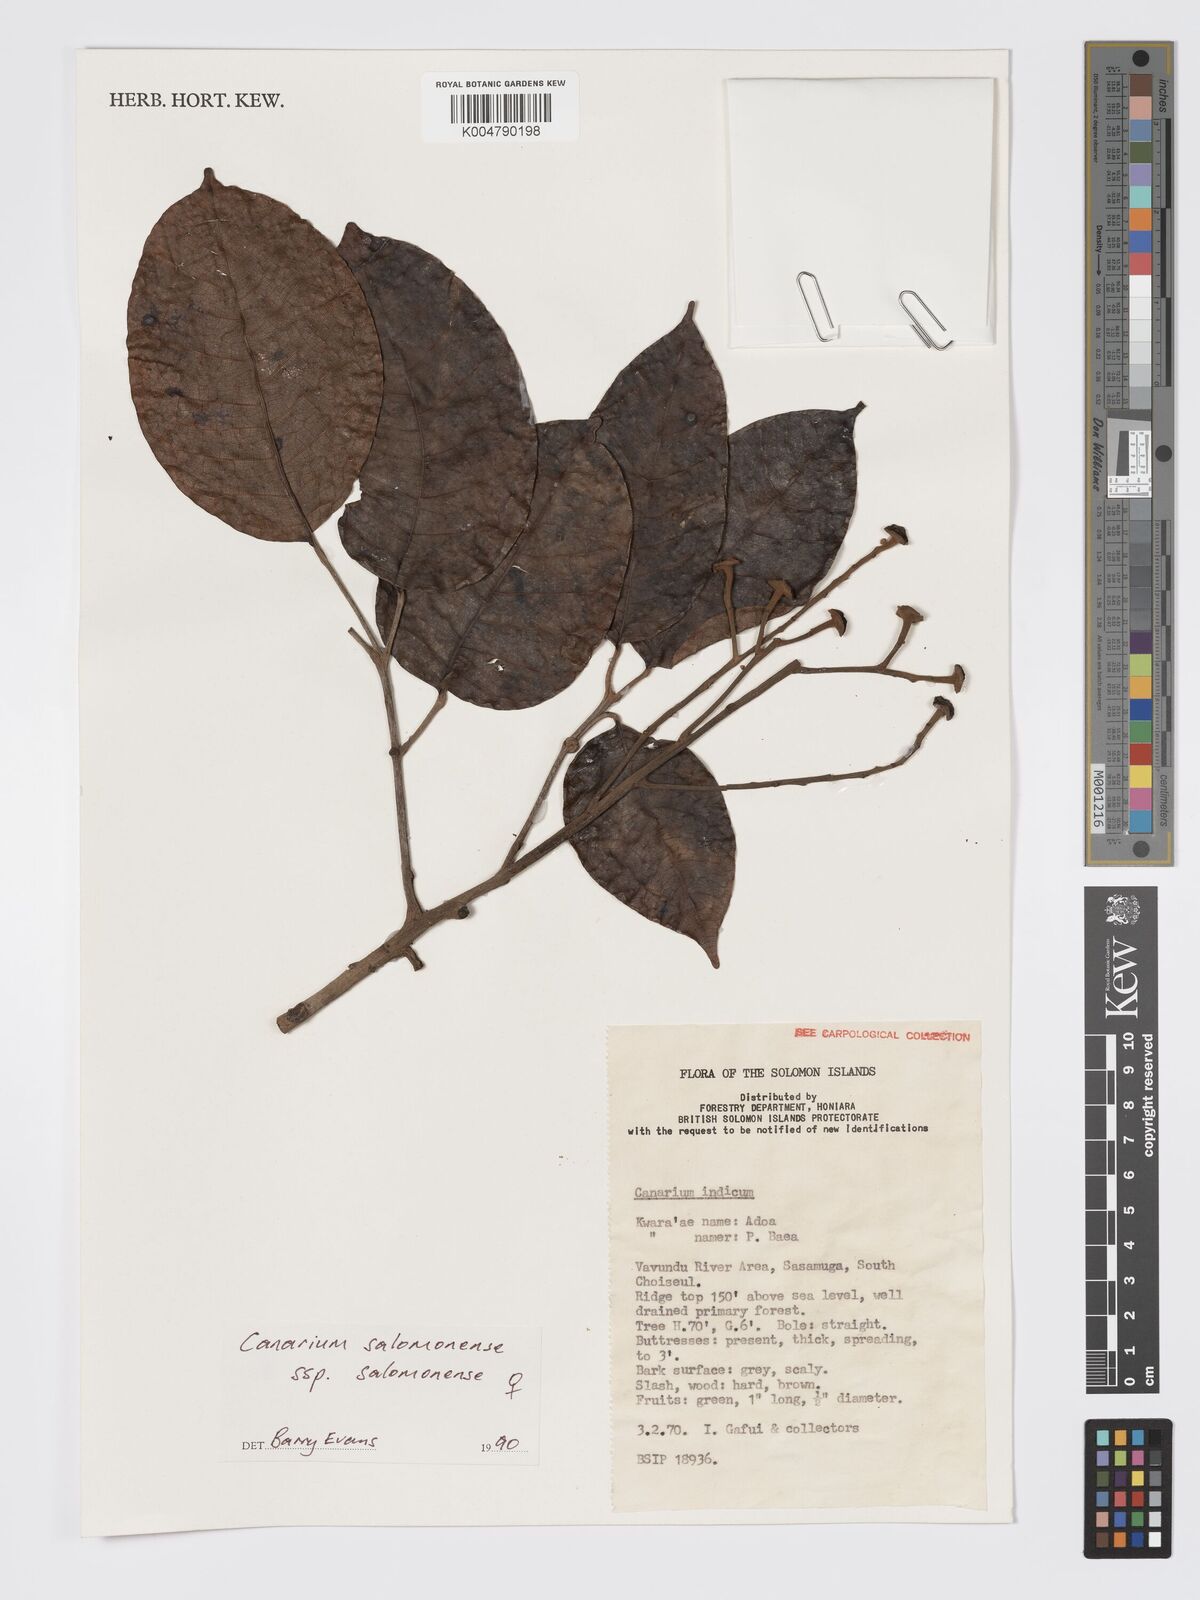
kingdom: Plantae
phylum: Tracheophyta
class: Magnoliopsida
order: Sapindales
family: Burseraceae
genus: Canarium
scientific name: Canarium salomonense
